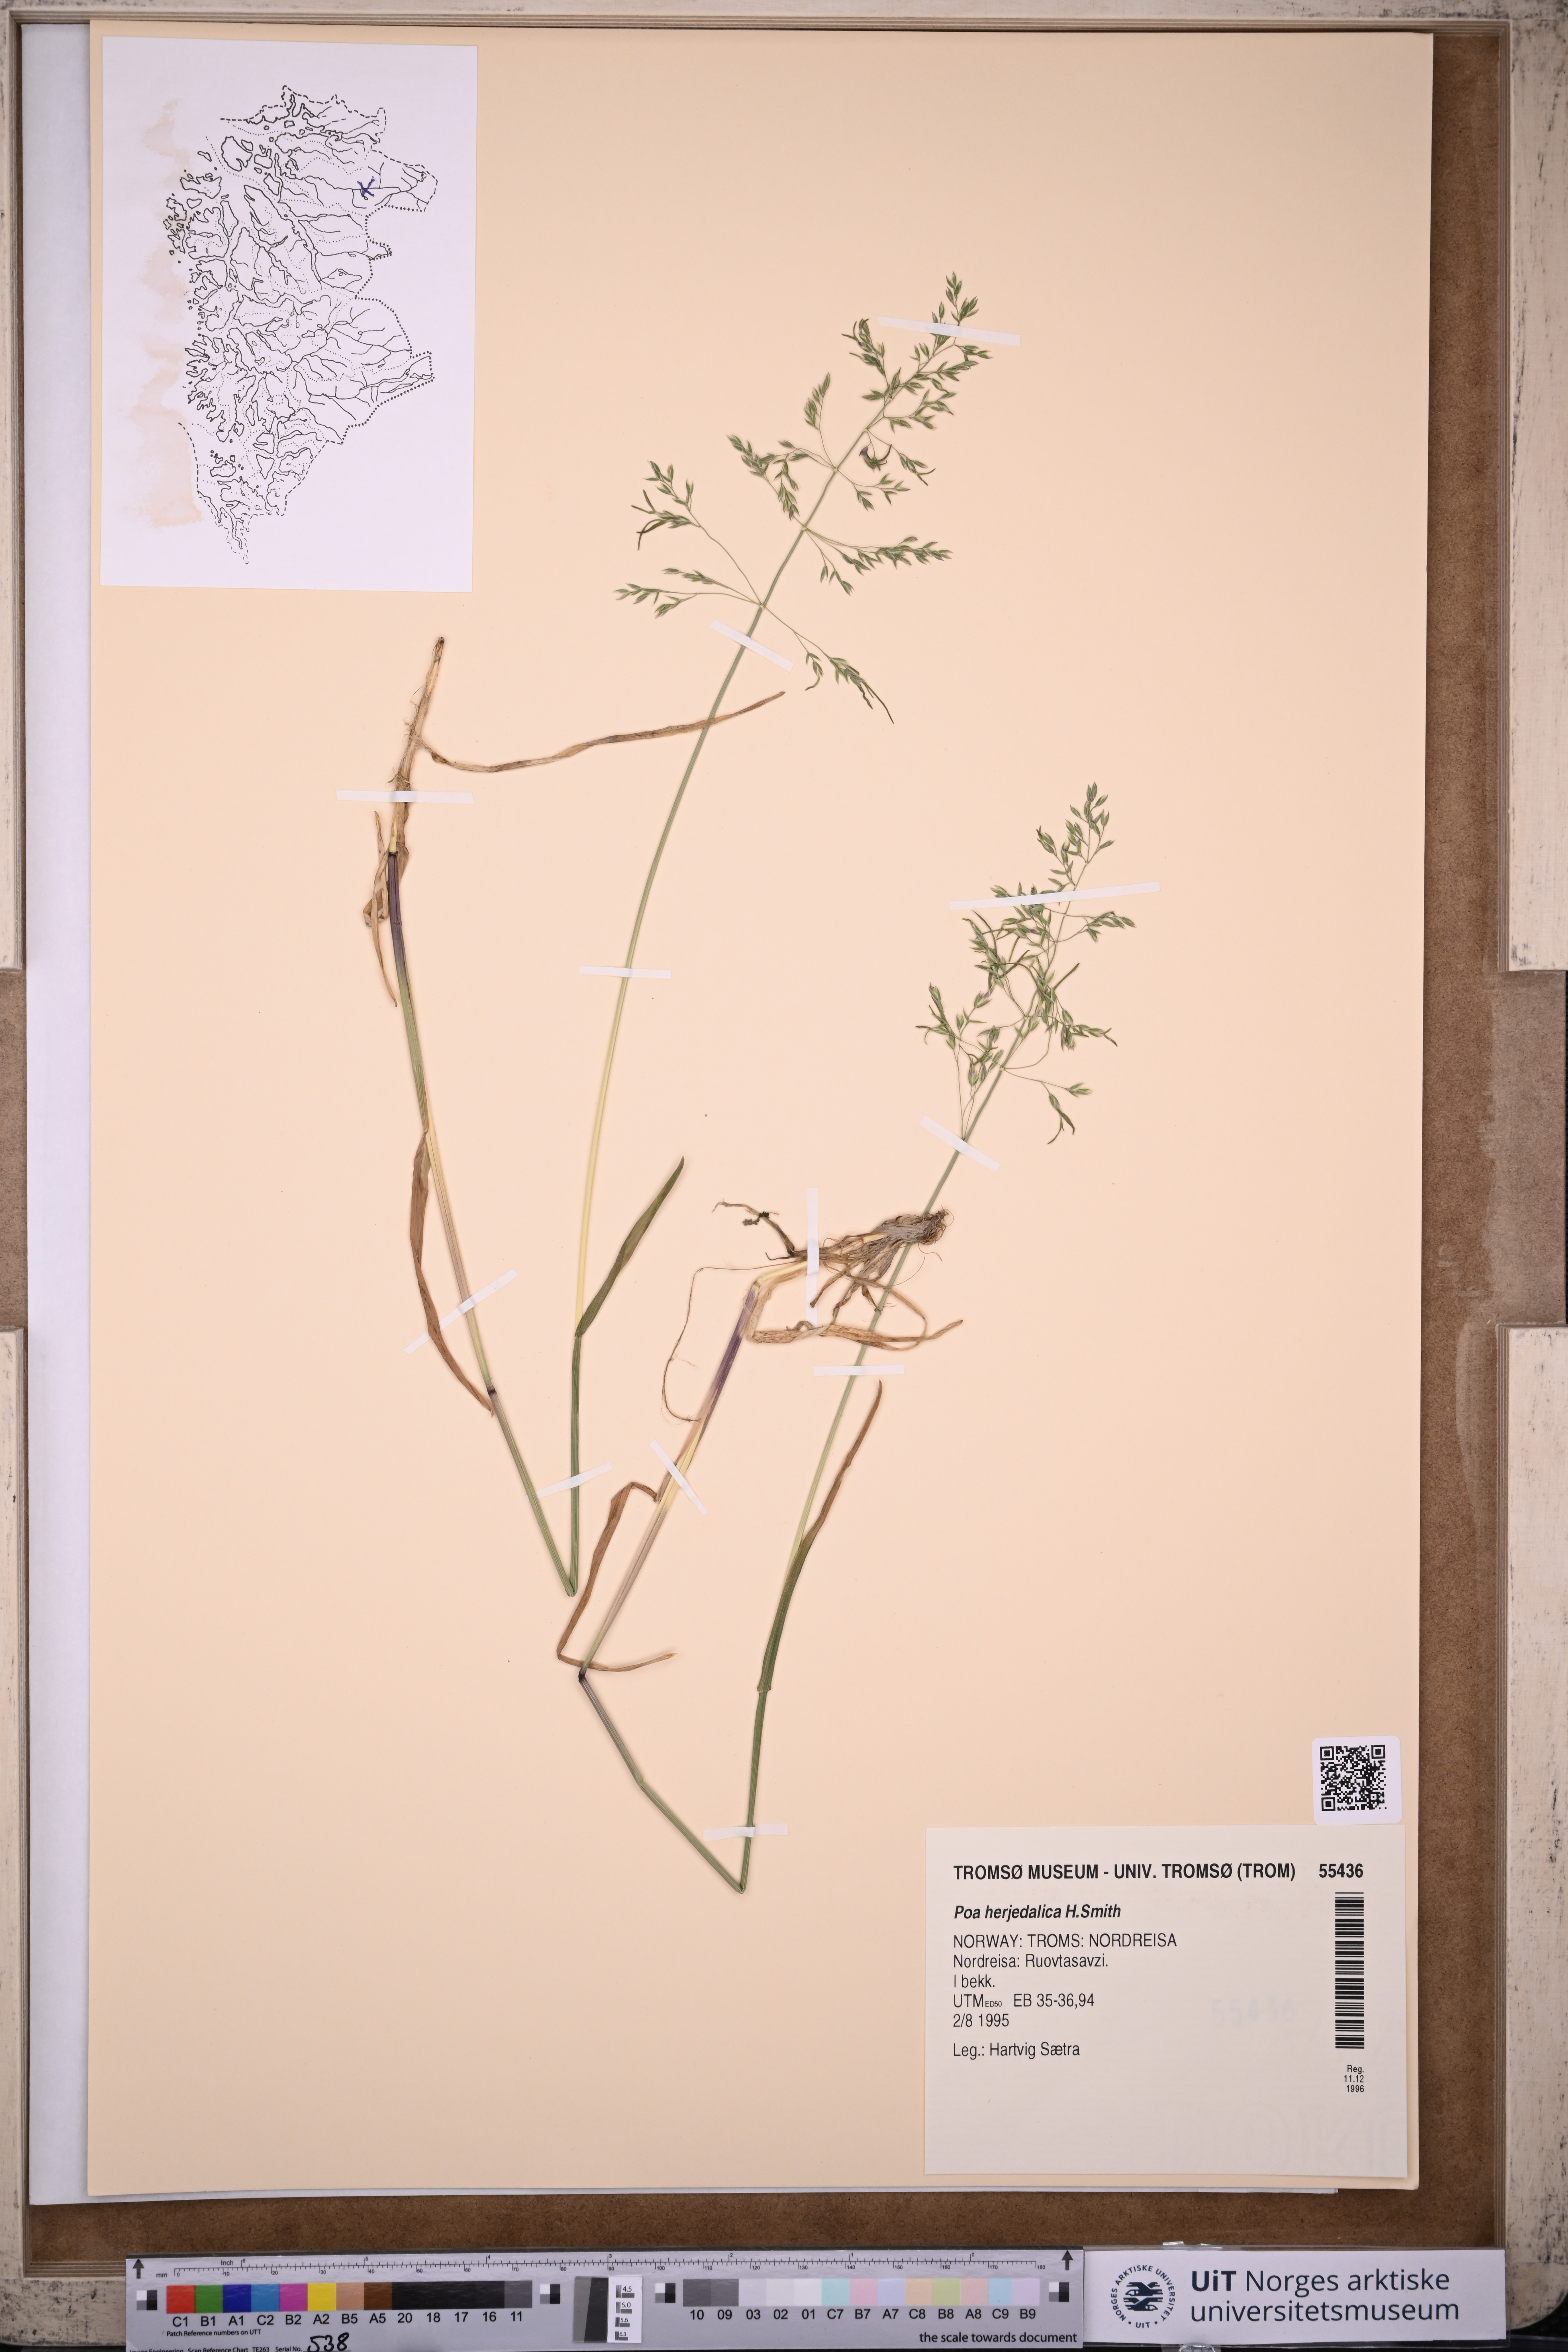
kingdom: Plantae
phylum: Tracheophyta
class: Liliopsida
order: Poales
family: Poaceae
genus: Poa
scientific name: Poa herjedalica
